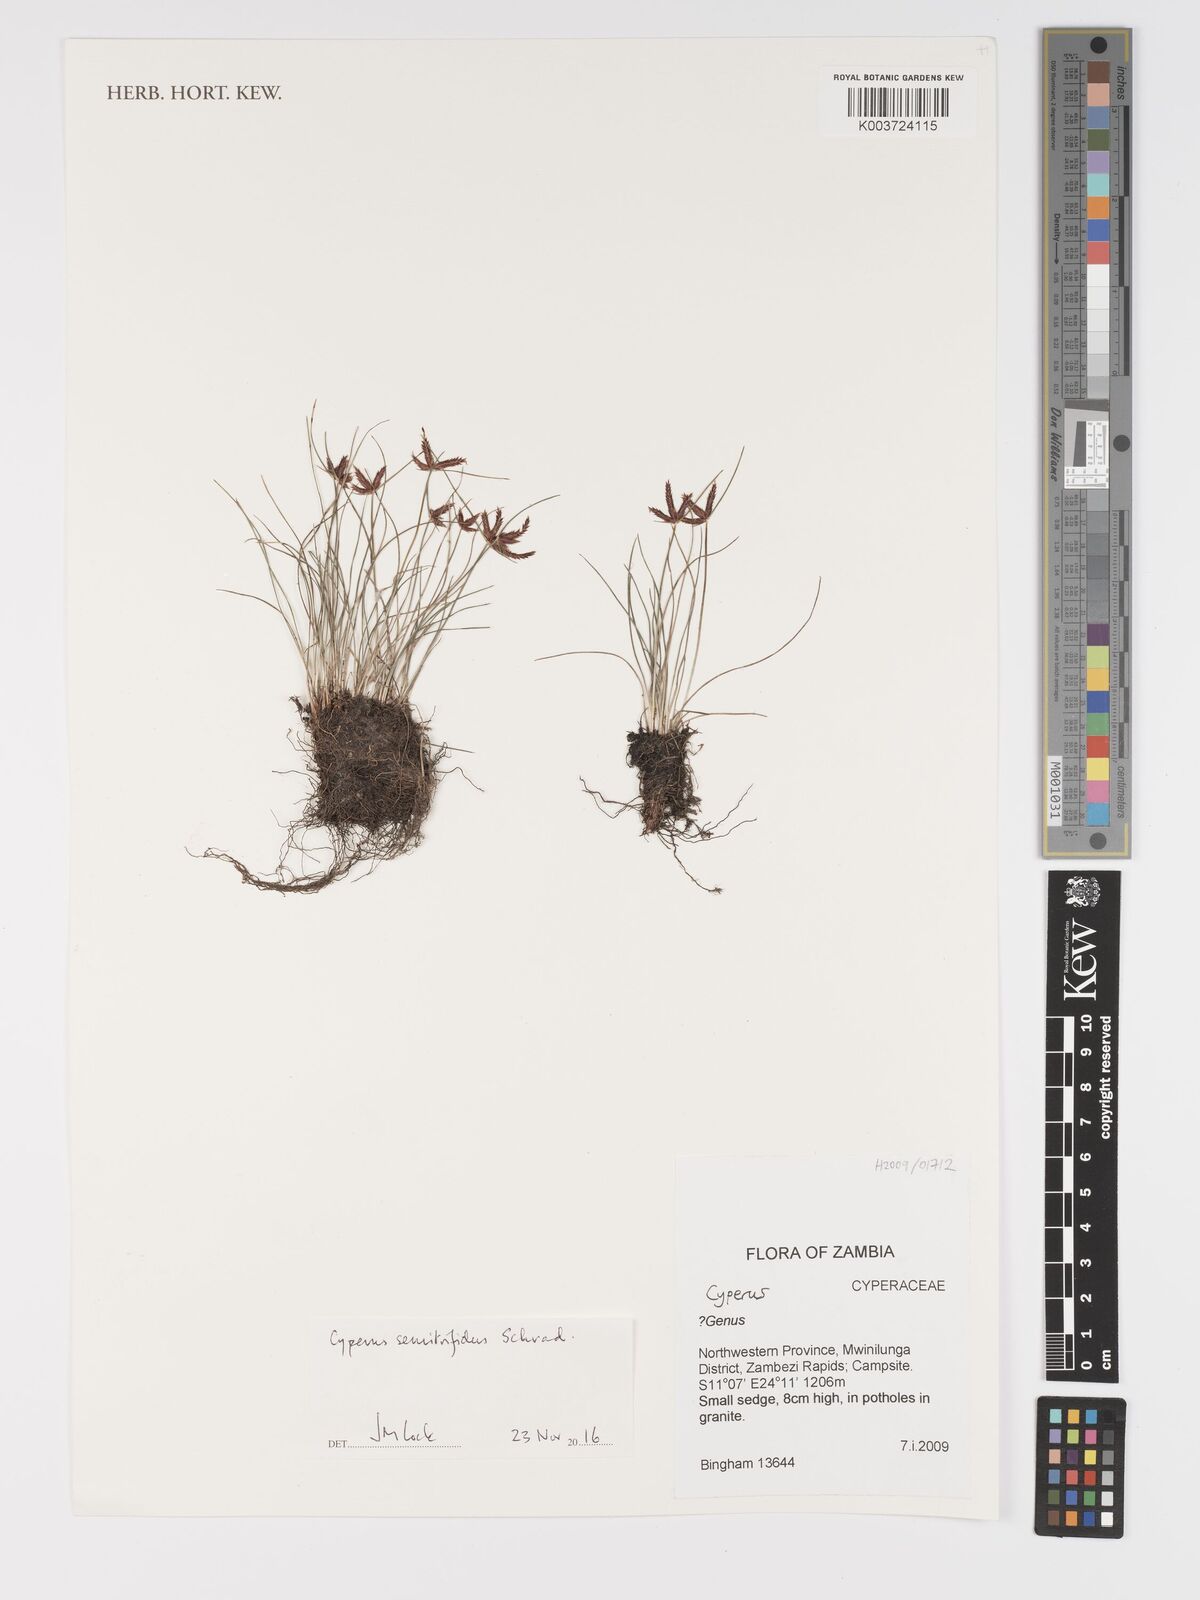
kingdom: Plantae
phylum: Tracheophyta
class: Liliopsida
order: Poales
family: Cyperaceae
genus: Cyperus
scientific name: Cyperus semitrifidus
